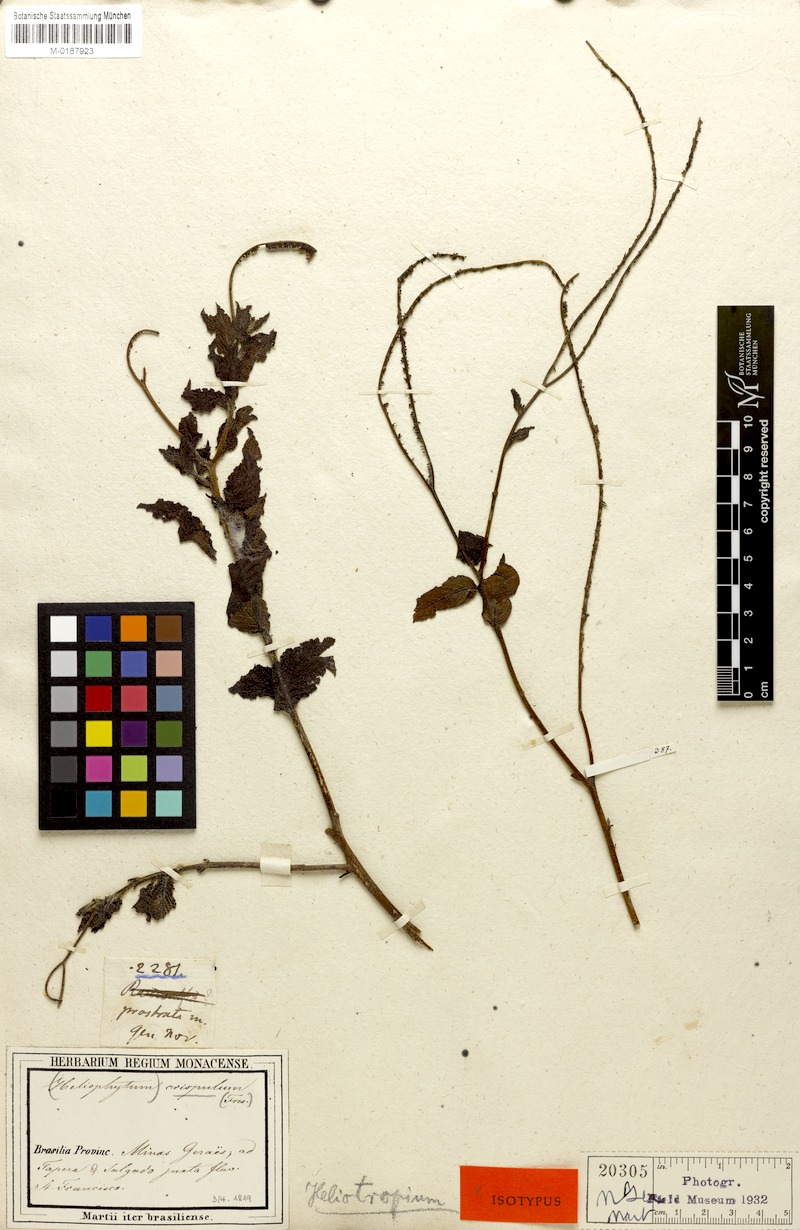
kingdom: Plantae
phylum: Tracheophyta
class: Magnoliopsida
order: Boraginales
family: Heliotropiaceae
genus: Heliotropium
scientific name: Heliotropium angiospermum
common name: Eye bright
